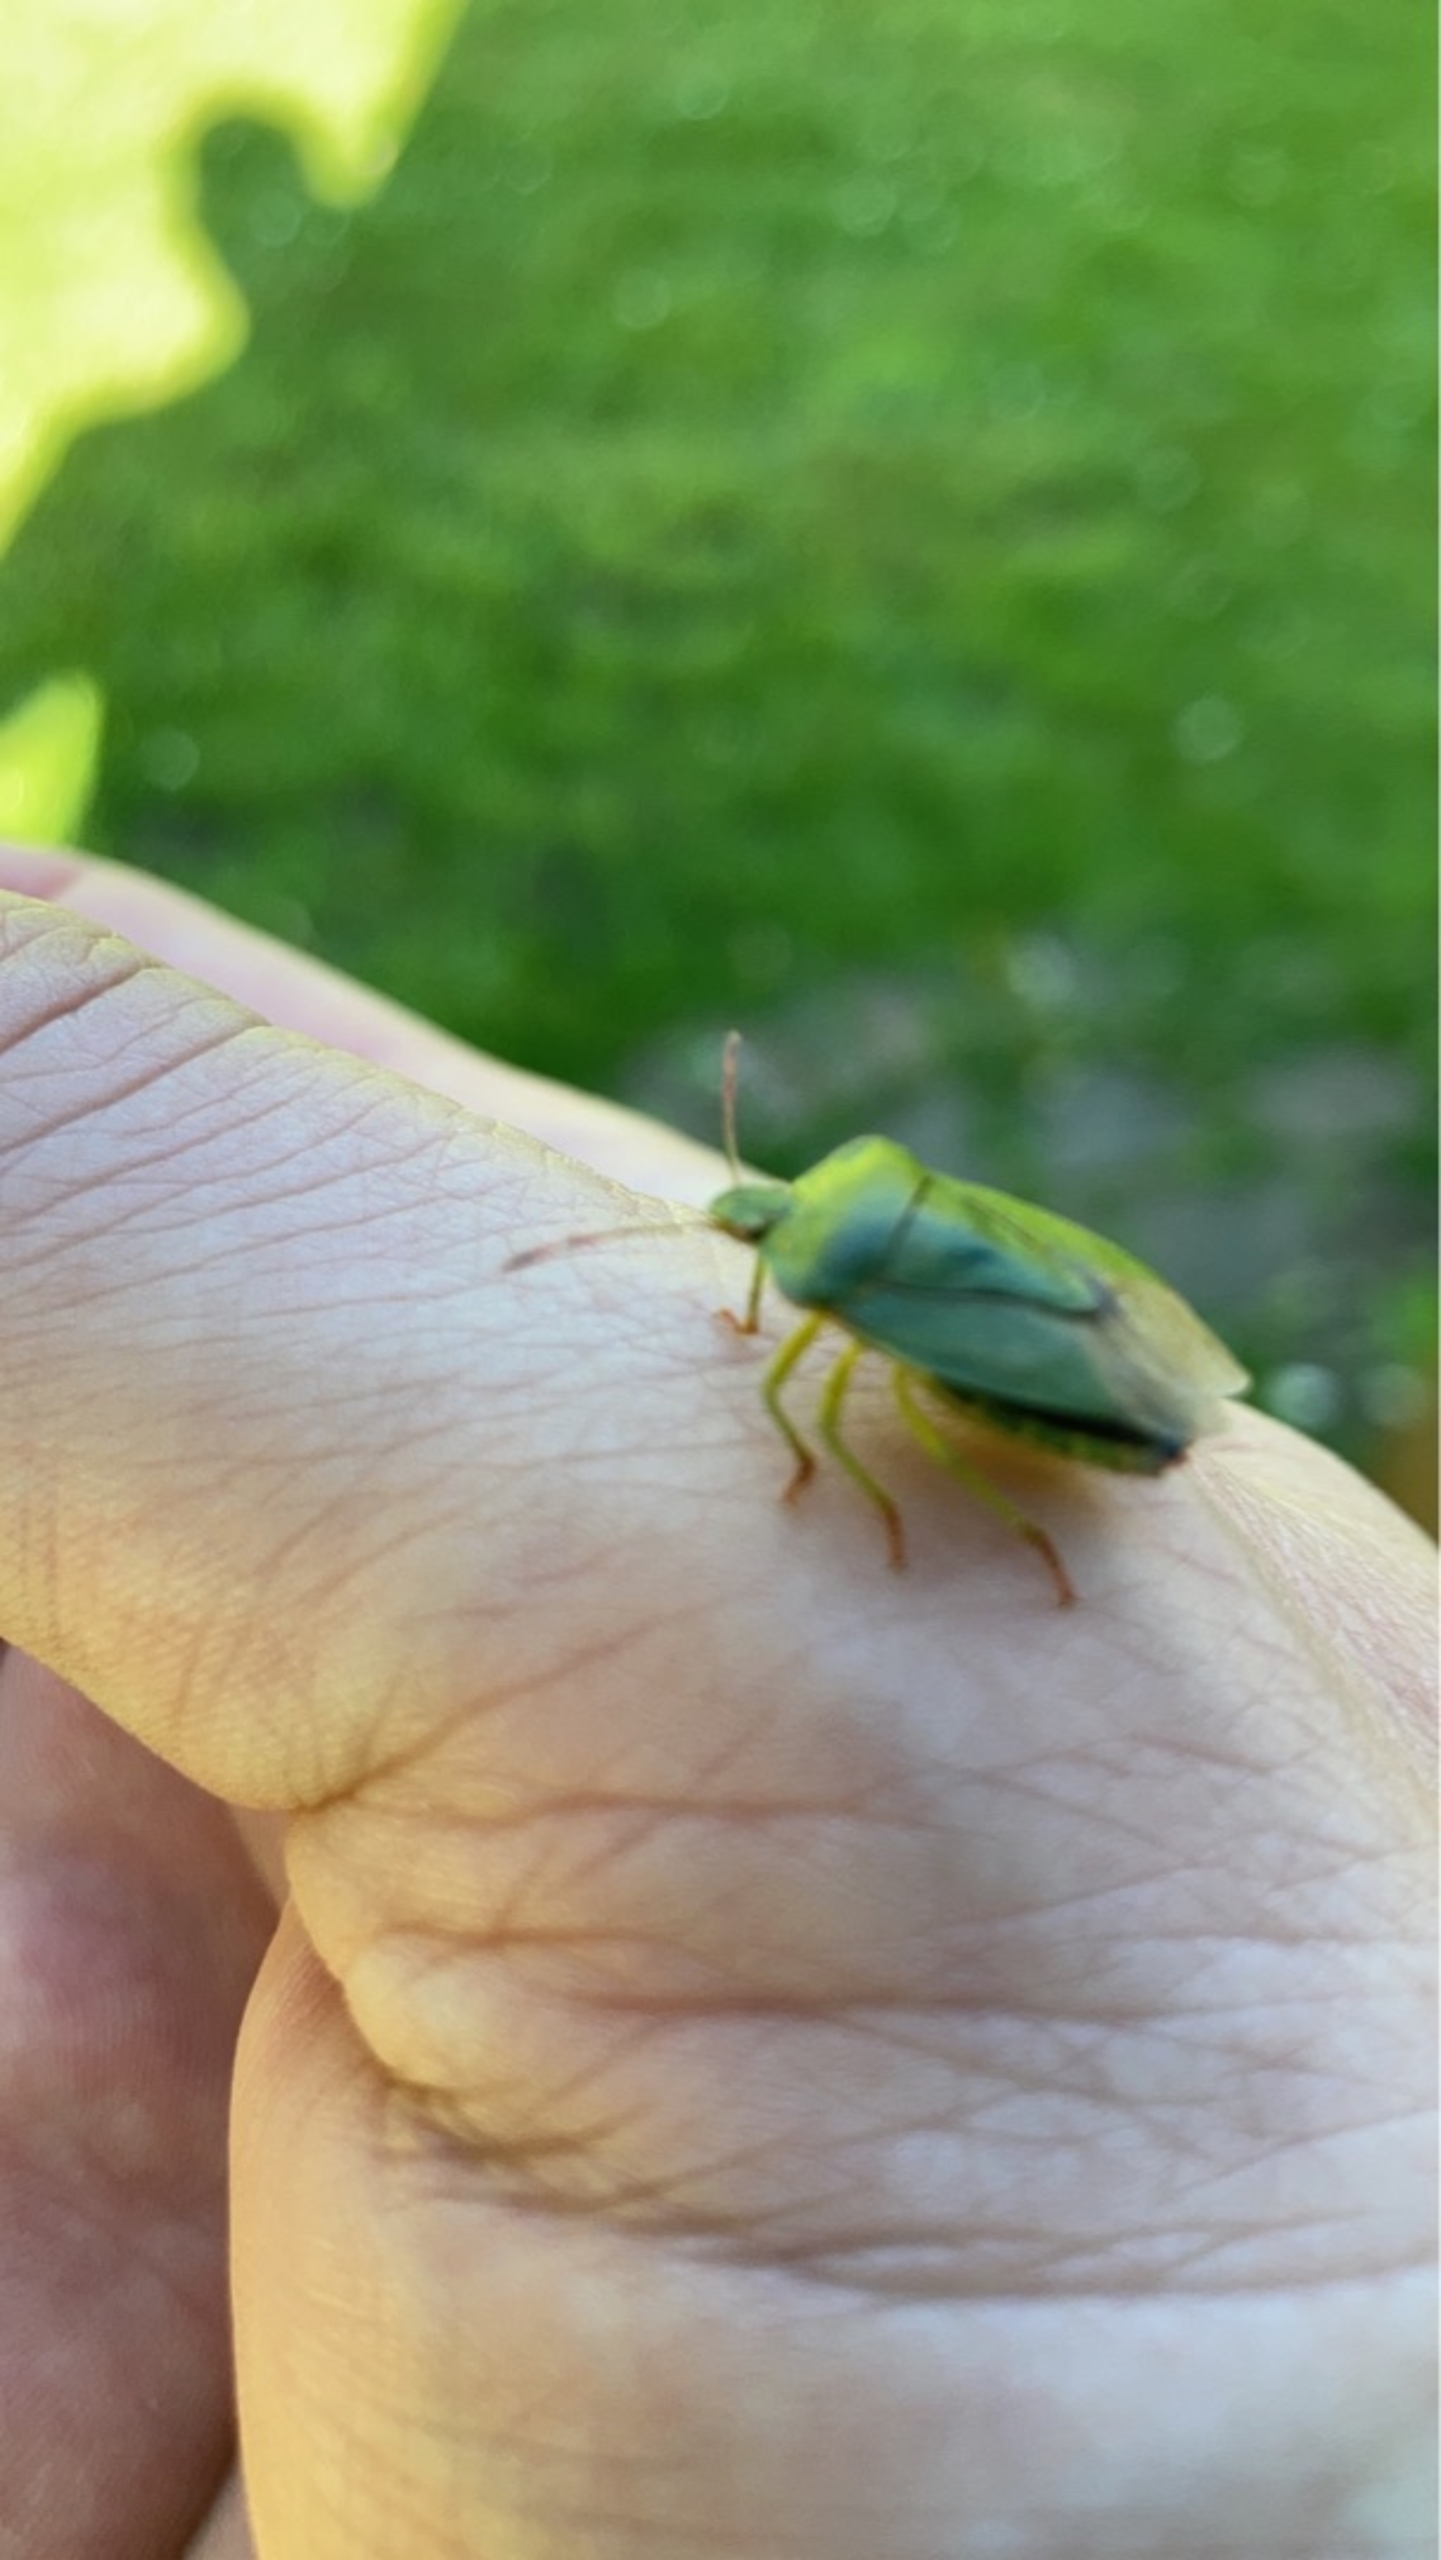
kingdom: Animalia
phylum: Arthropoda
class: Insecta
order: Hemiptera
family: Pentatomidae
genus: Palomena
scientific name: Palomena prasina
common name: Grøn bredtæge
